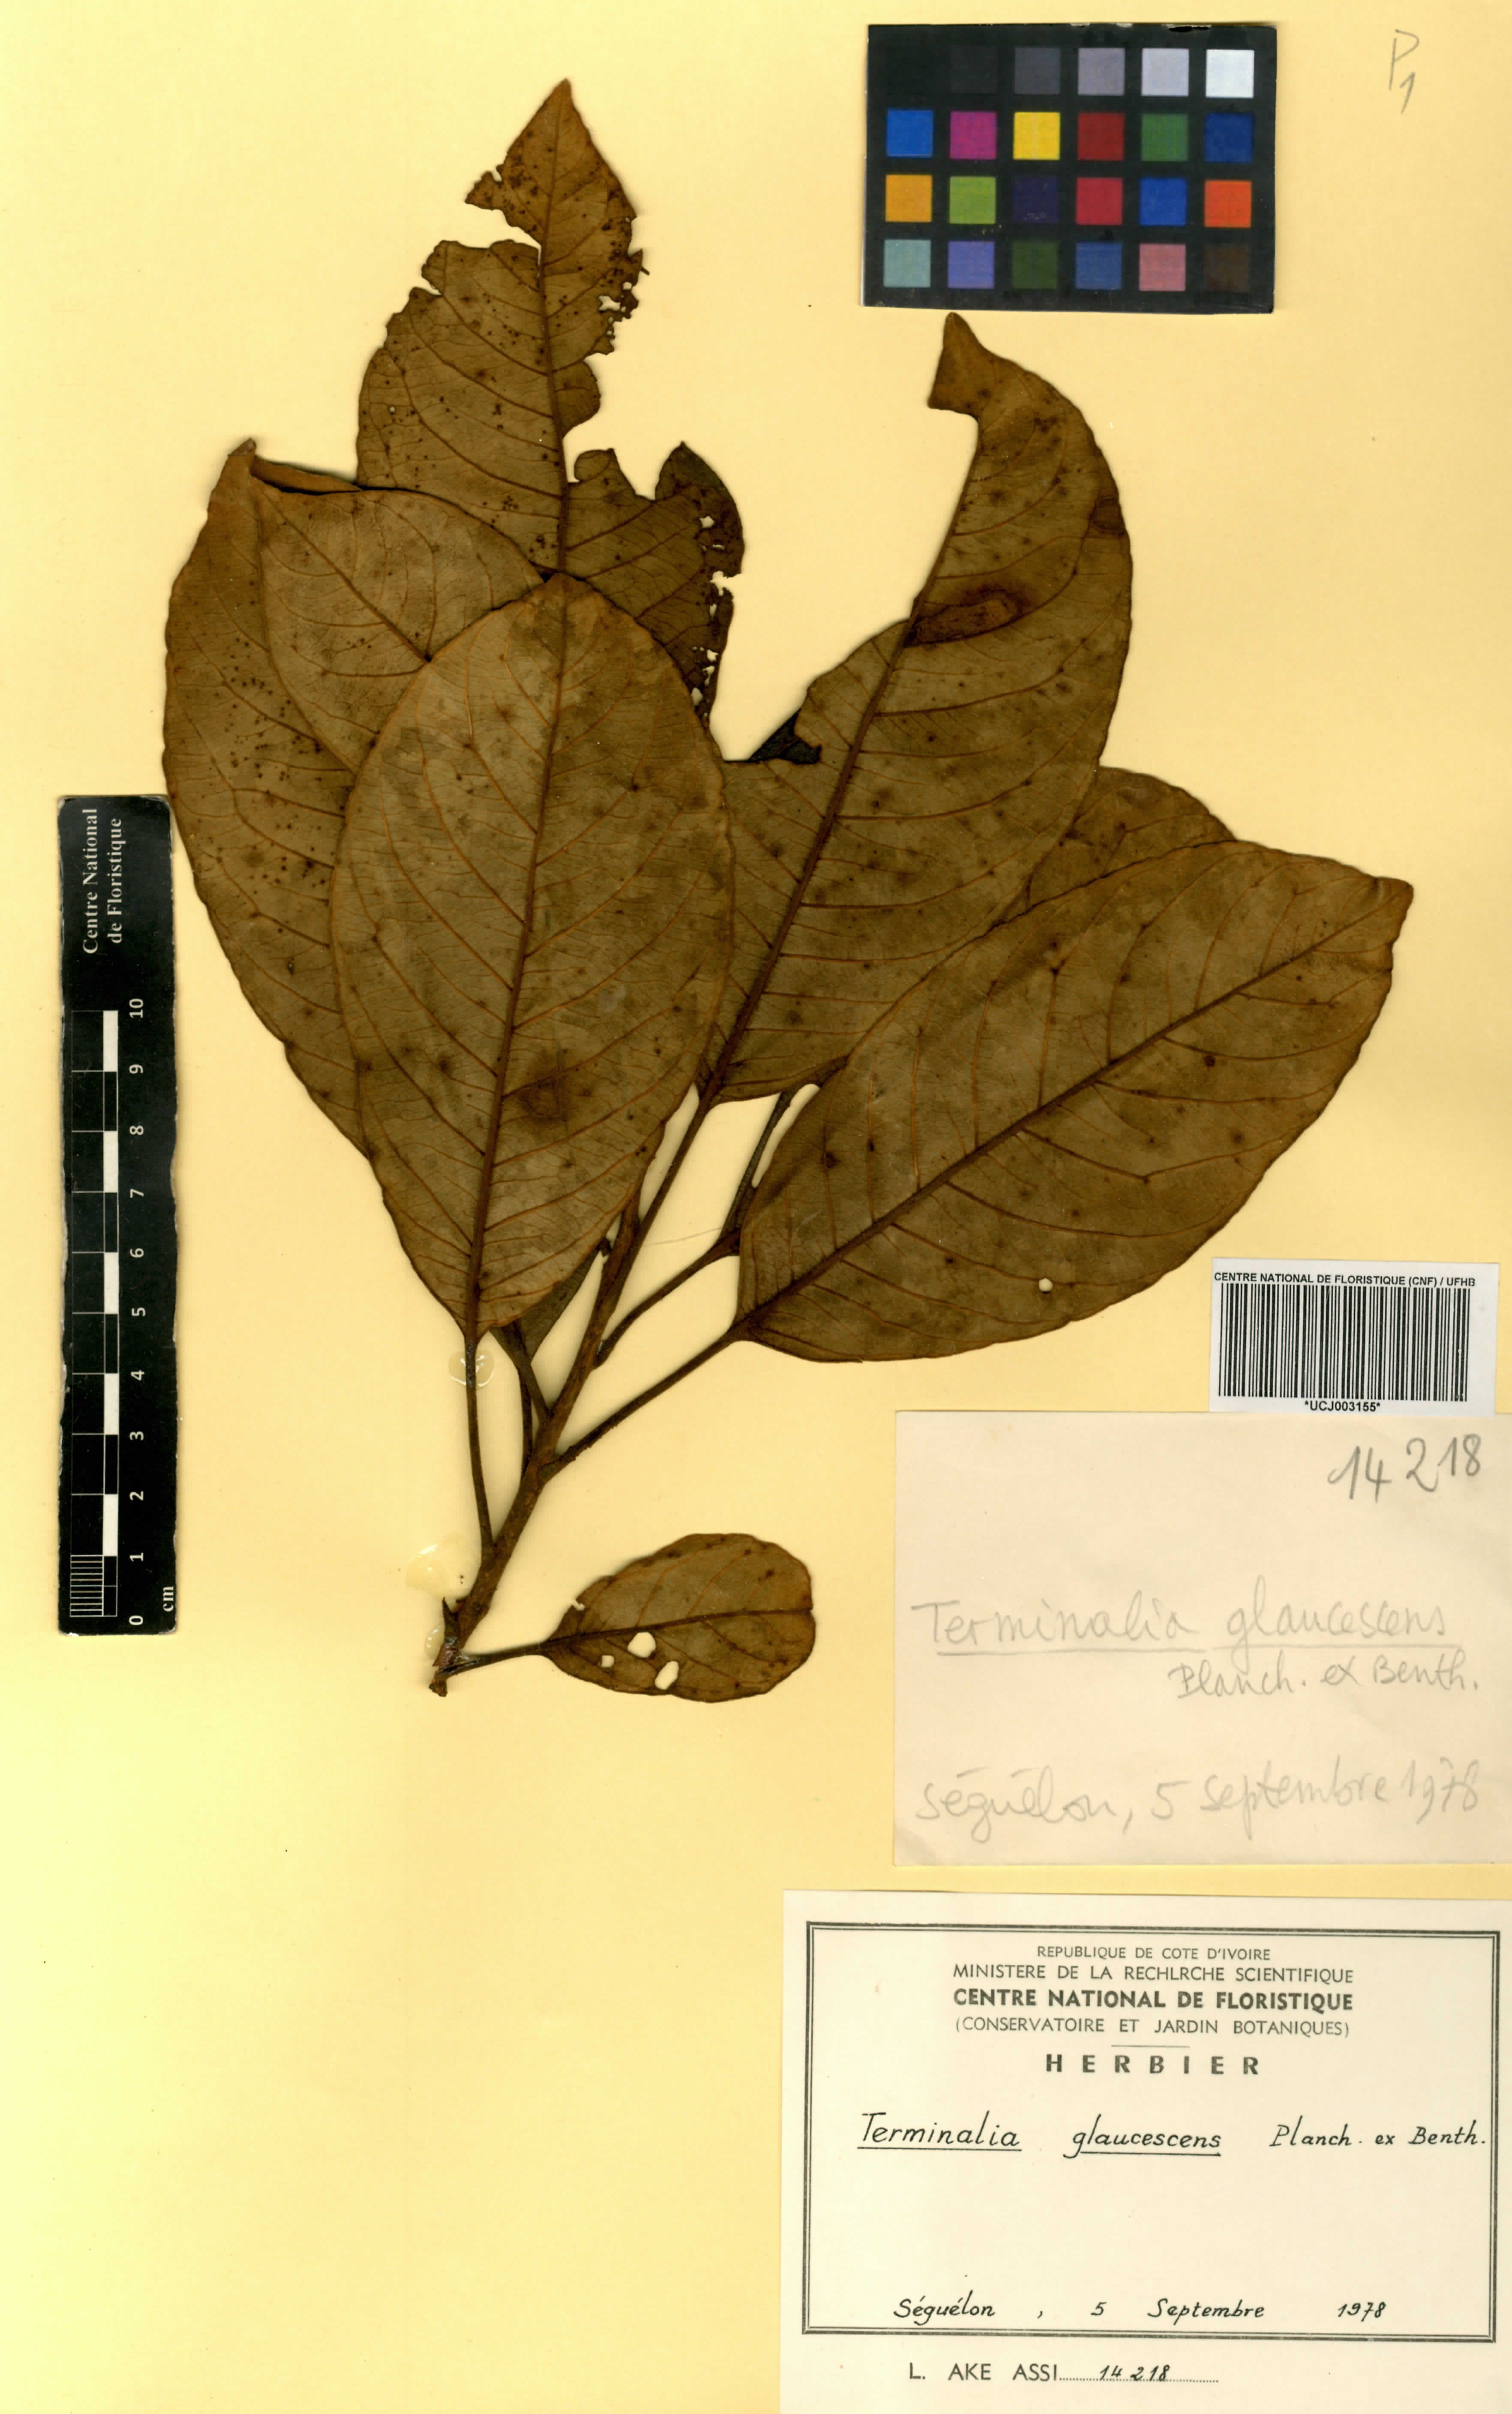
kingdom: Plantae
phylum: Tracheophyta
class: Magnoliopsida
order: Myrtales
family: Combretaceae
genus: Terminalia
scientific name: Terminalia schimperiana
